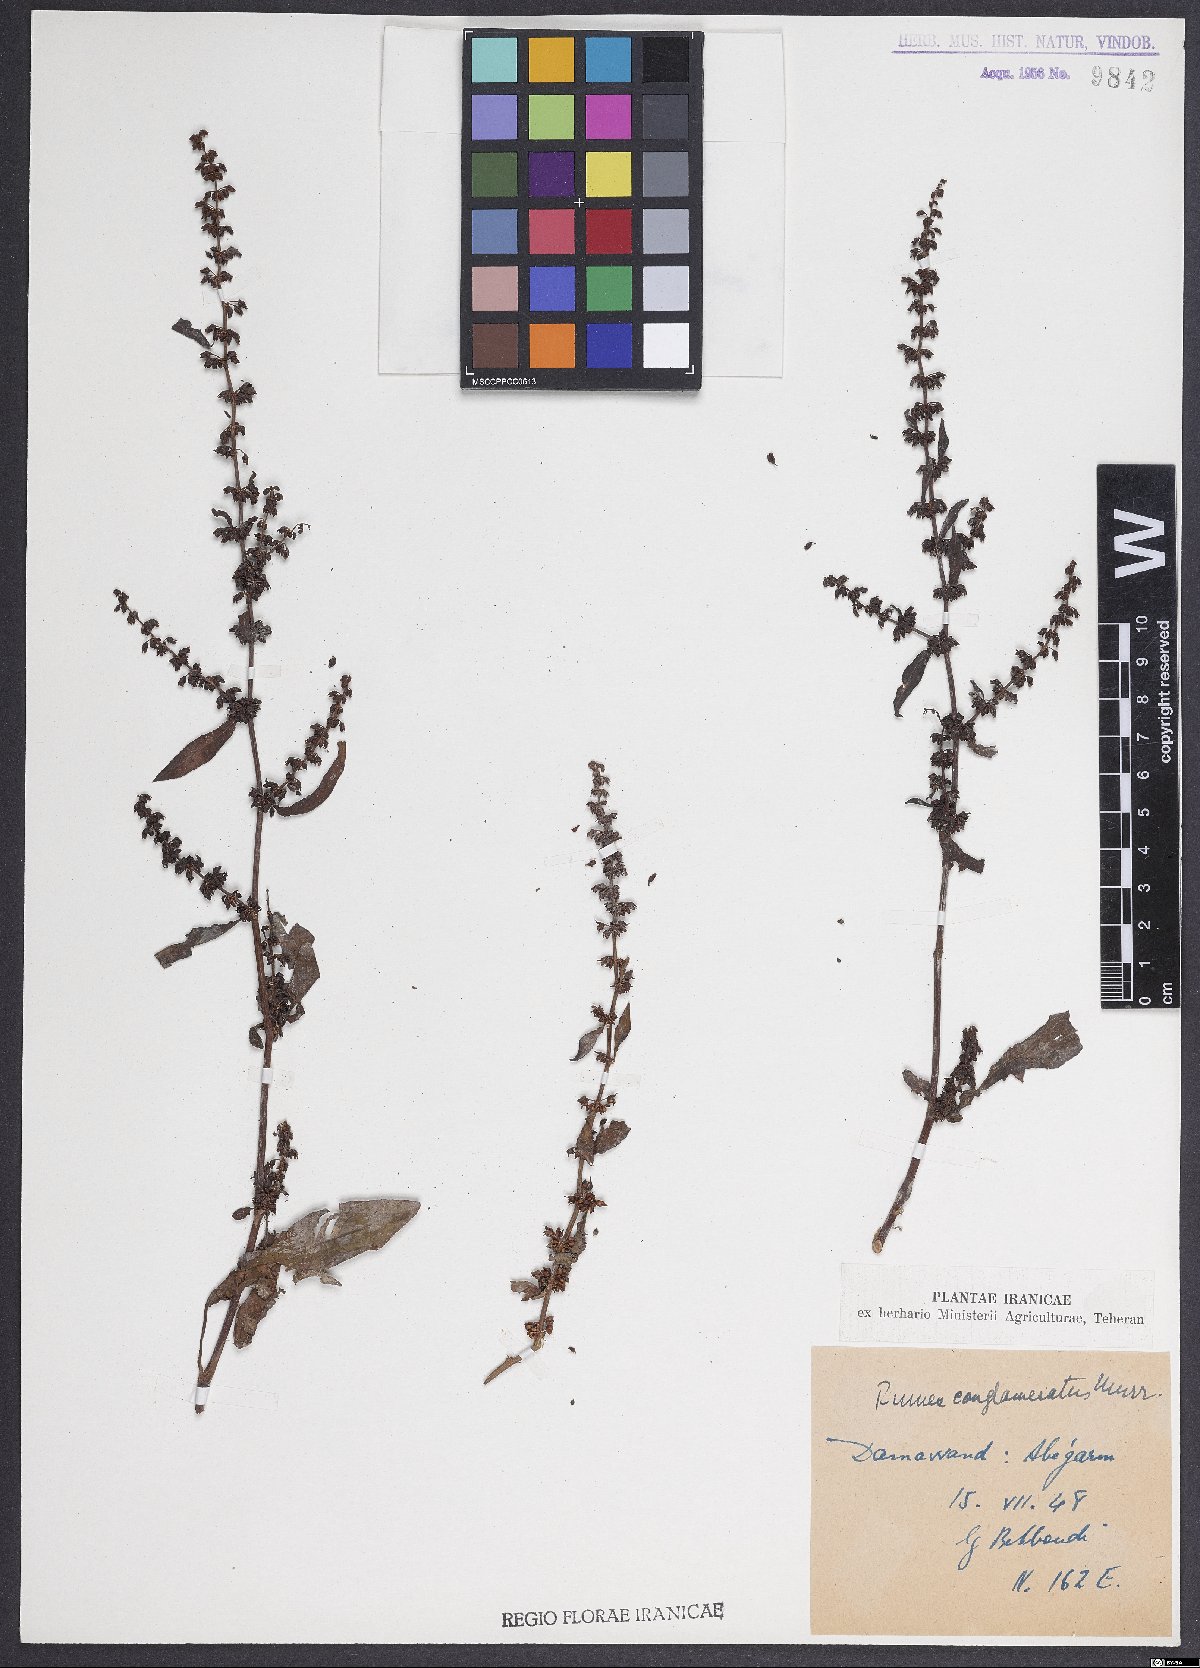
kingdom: Plantae
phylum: Tracheophyta
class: Magnoliopsida
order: Caryophyllales
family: Polygonaceae
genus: Rumex
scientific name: Rumex conglomeratus
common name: Clustered dock
